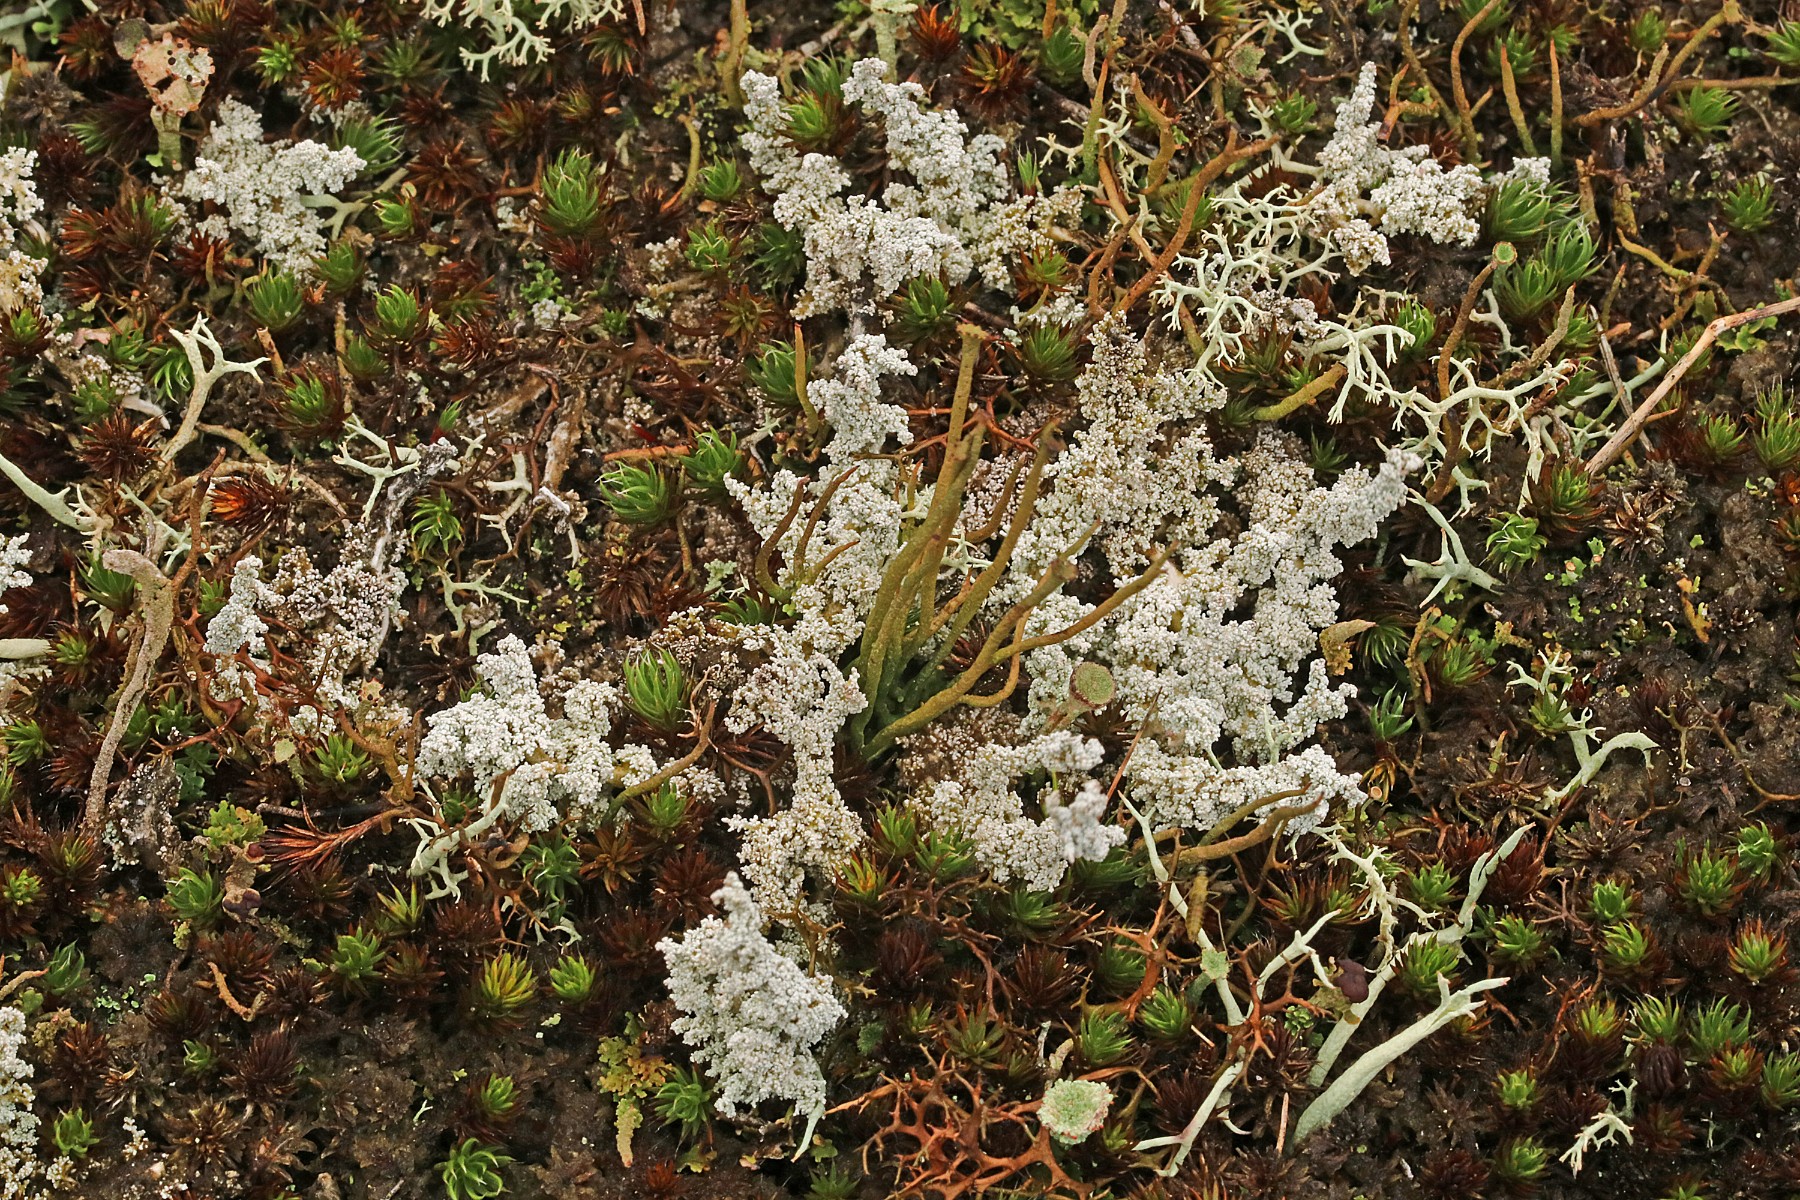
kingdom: Fungi
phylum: Ascomycota
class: Lecanoromycetes
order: Lecanorales
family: Stereocaulaceae
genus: Stereocaulon
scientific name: Stereocaulon saxatile
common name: klit-korallav
